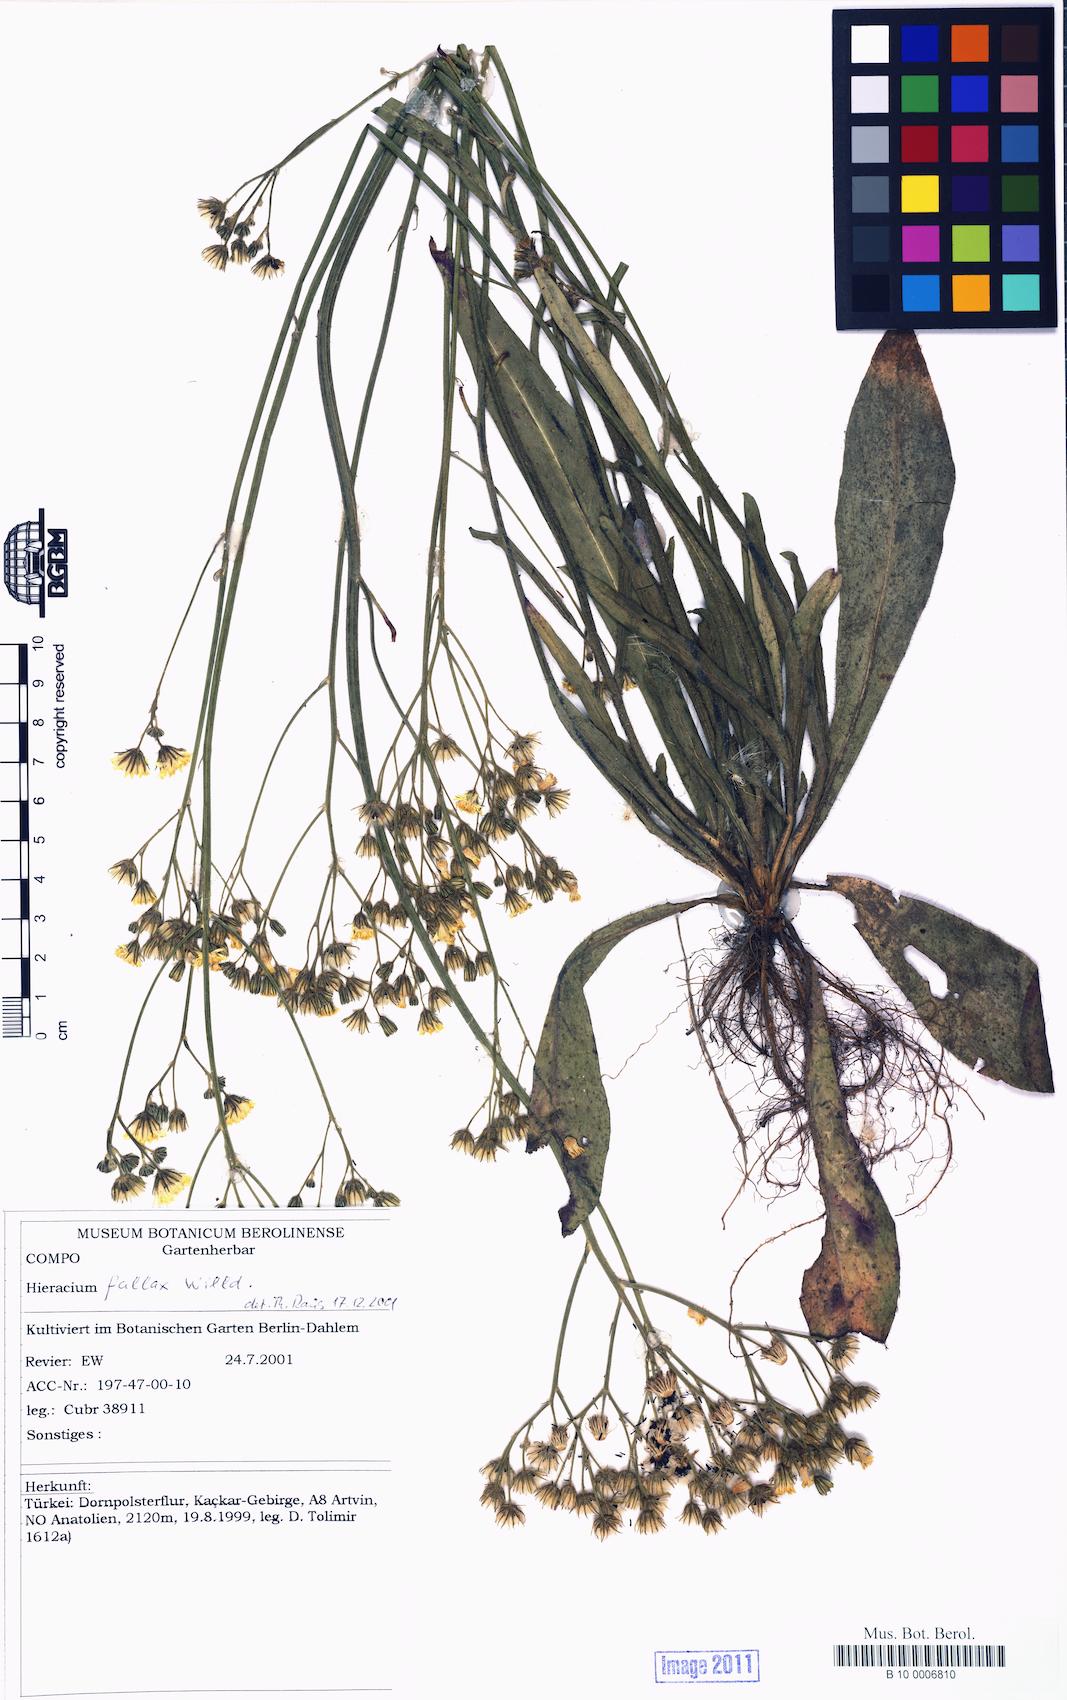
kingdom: Plantae
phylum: Tracheophyta
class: Magnoliopsida
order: Asterales
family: Asteraceae
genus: Pilosella
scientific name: Pilosella cymosiformis
